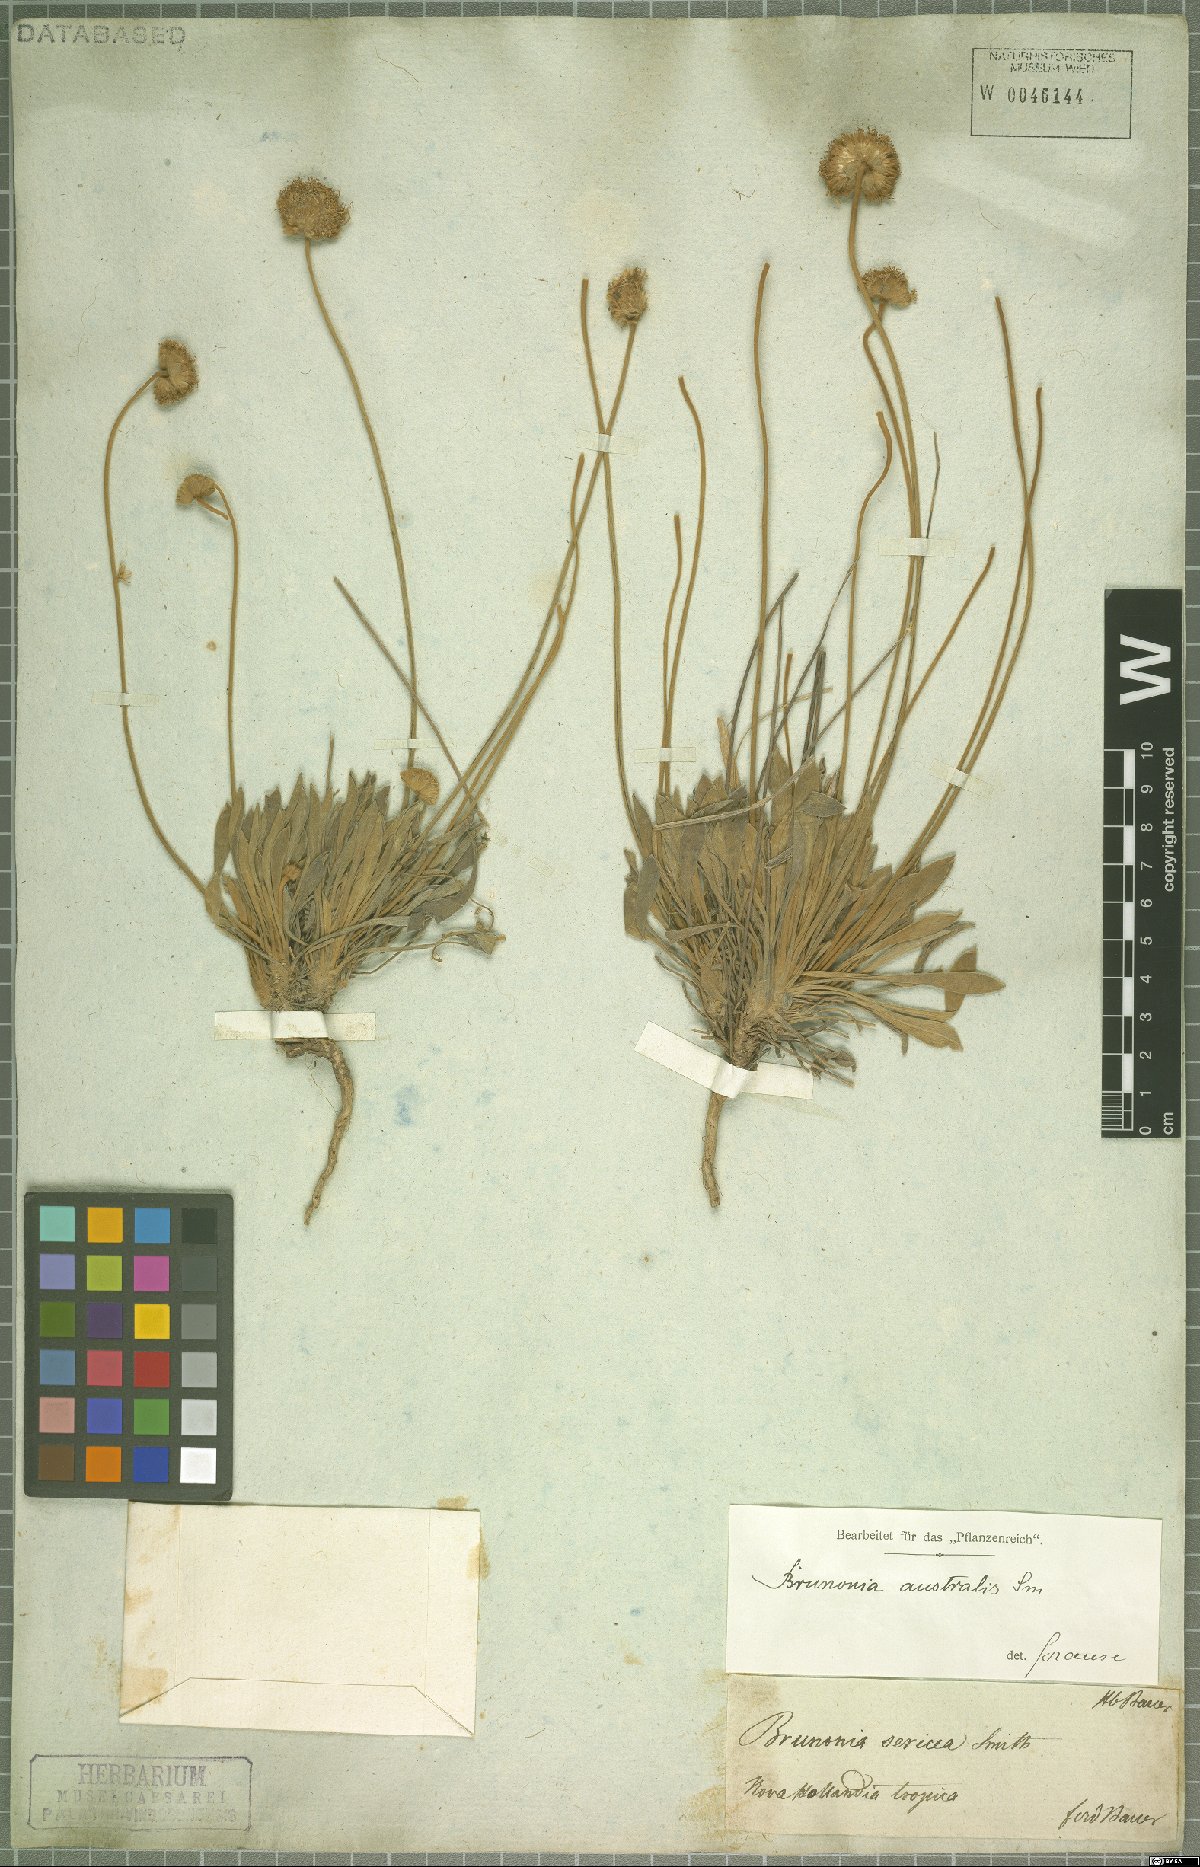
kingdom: Plantae
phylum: Tracheophyta
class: Magnoliopsida
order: Asterales
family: Goodeniaceae
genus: Brunonia
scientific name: Brunonia australis
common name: Blue pincushion
